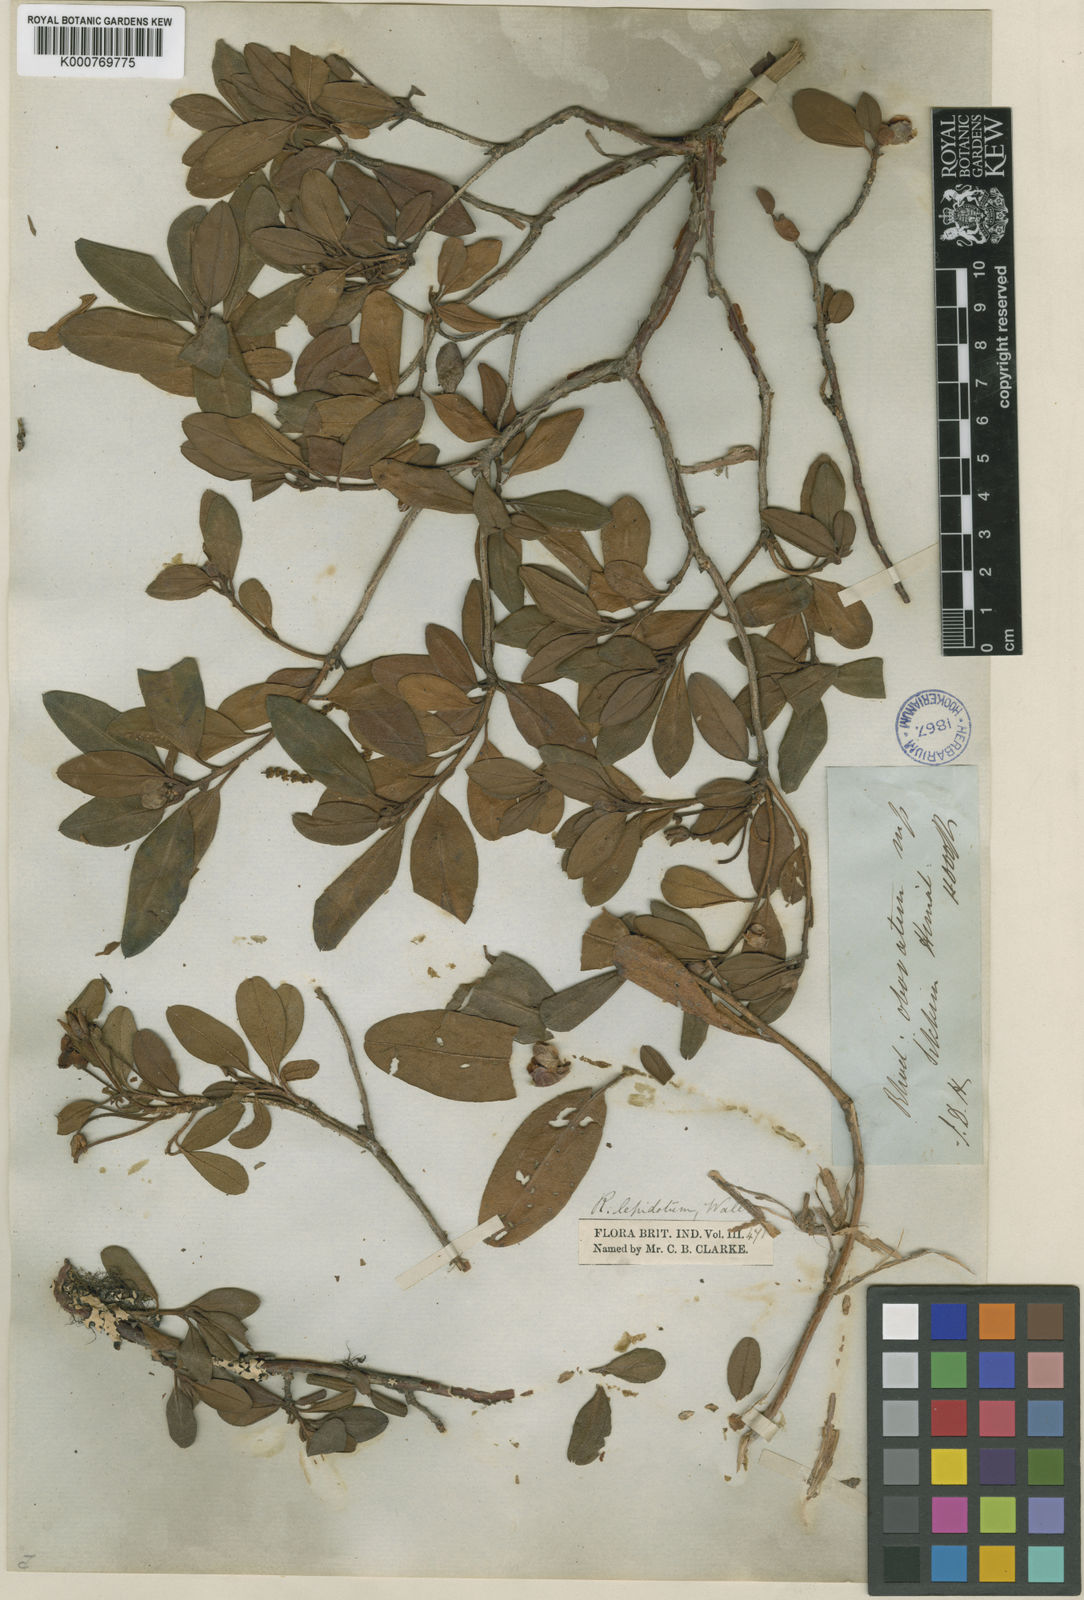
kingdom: Plantae
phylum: Tracheophyta
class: Magnoliopsida
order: Ericales
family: Ericaceae
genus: Rhododendron
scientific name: Rhododendron lepidotum
